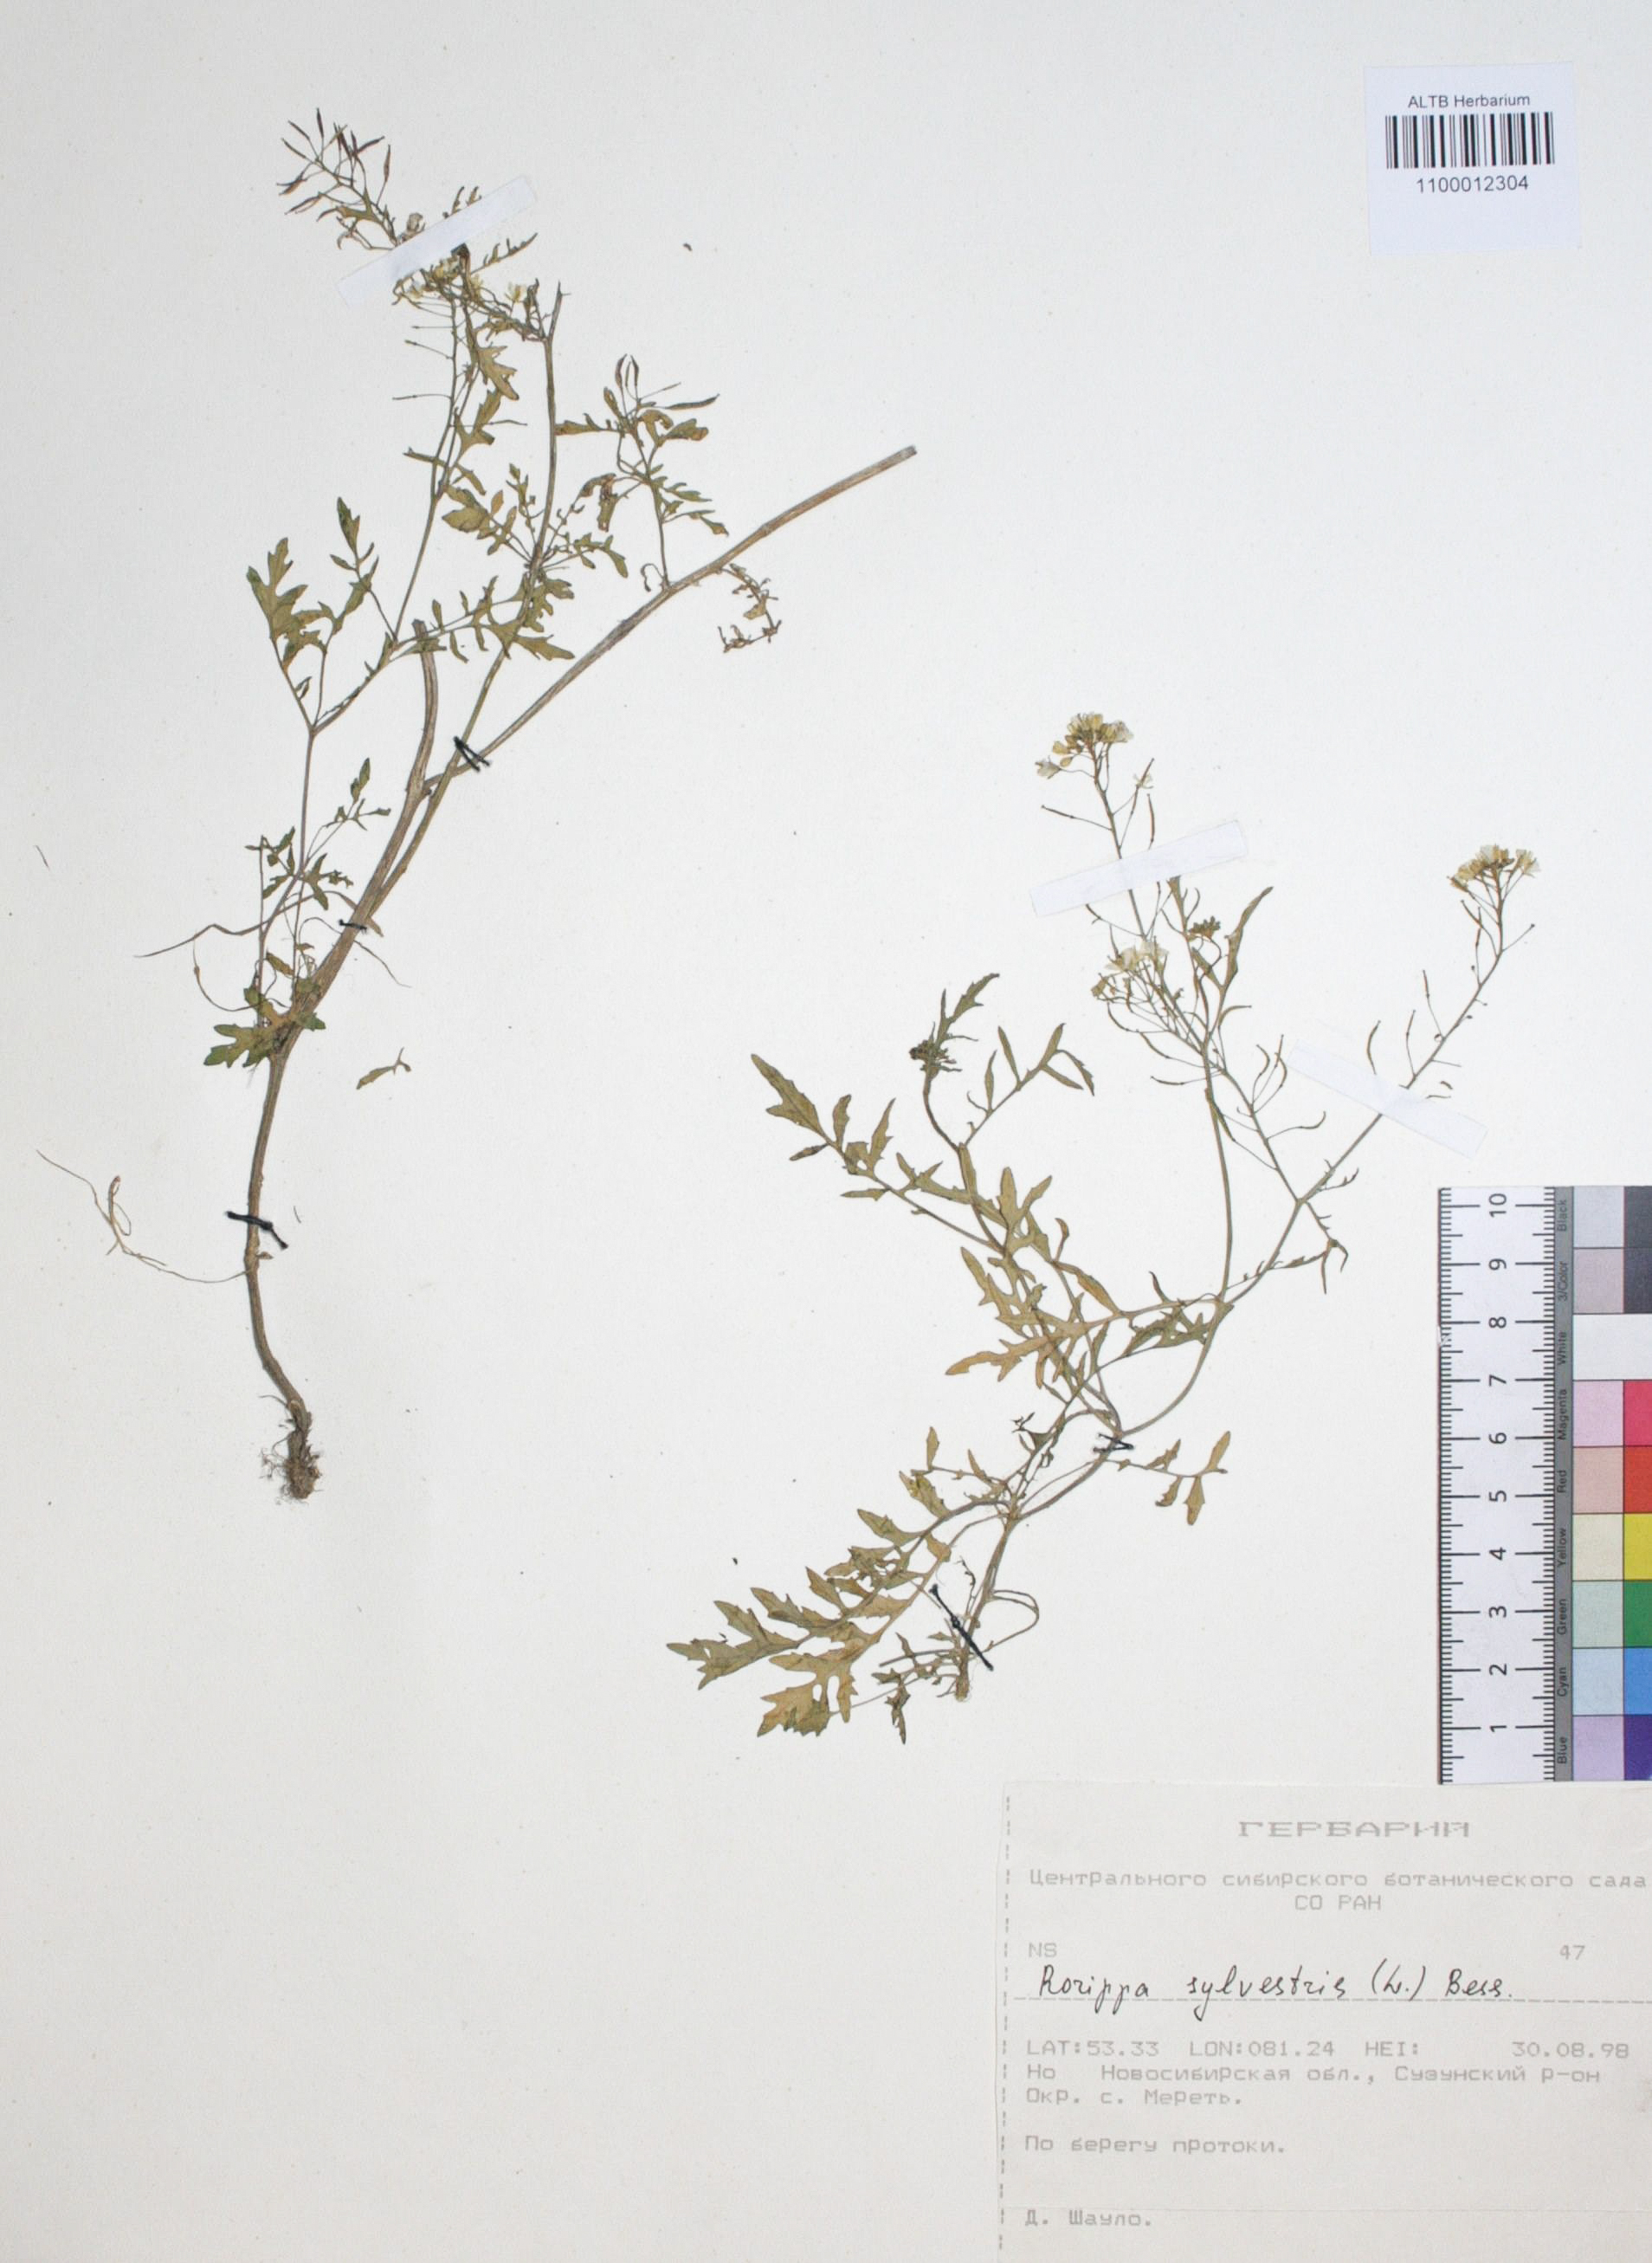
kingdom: Plantae
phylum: Tracheophyta
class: Magnoliopsida
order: Brassicales
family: Brassicaceae
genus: Rorippa
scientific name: Rorippa sylvestris
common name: Creeping yellowcress
